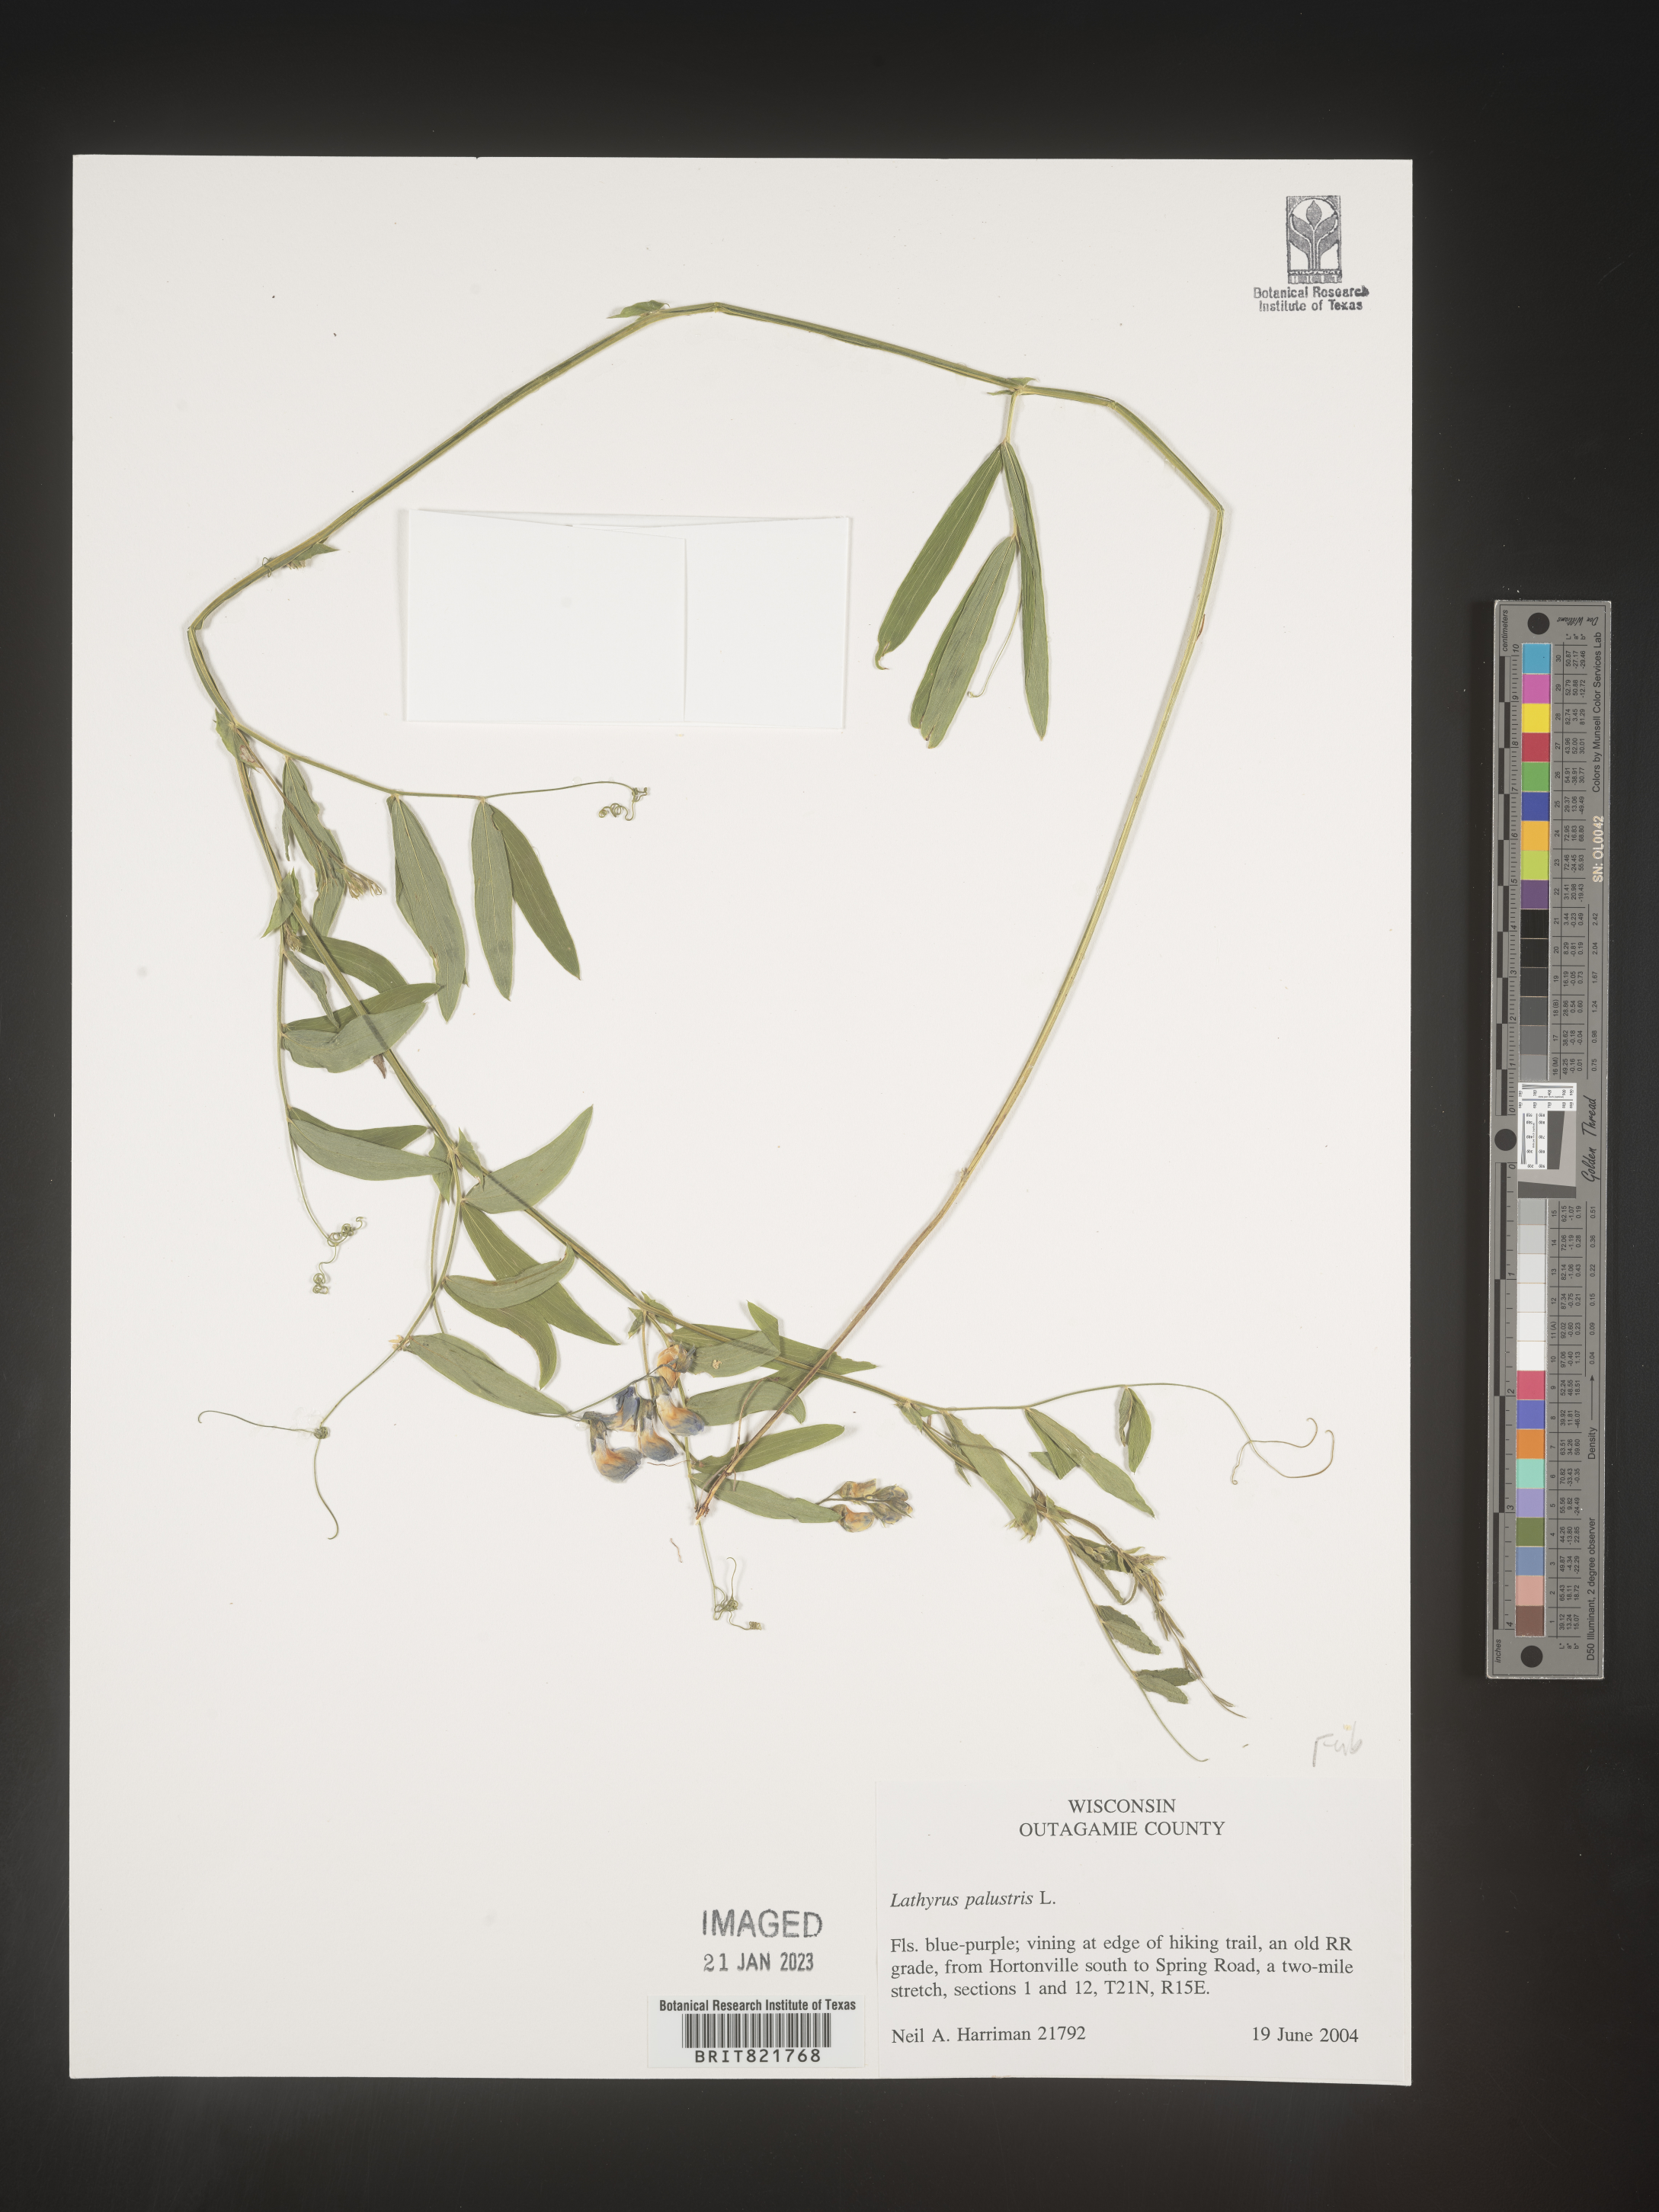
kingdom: Plantae
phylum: Tracheophyta
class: Magnoliopsida
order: Fabales
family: Fabaceae
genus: Lathyrus
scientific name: Lathyrus palustris
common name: Marsh pea
